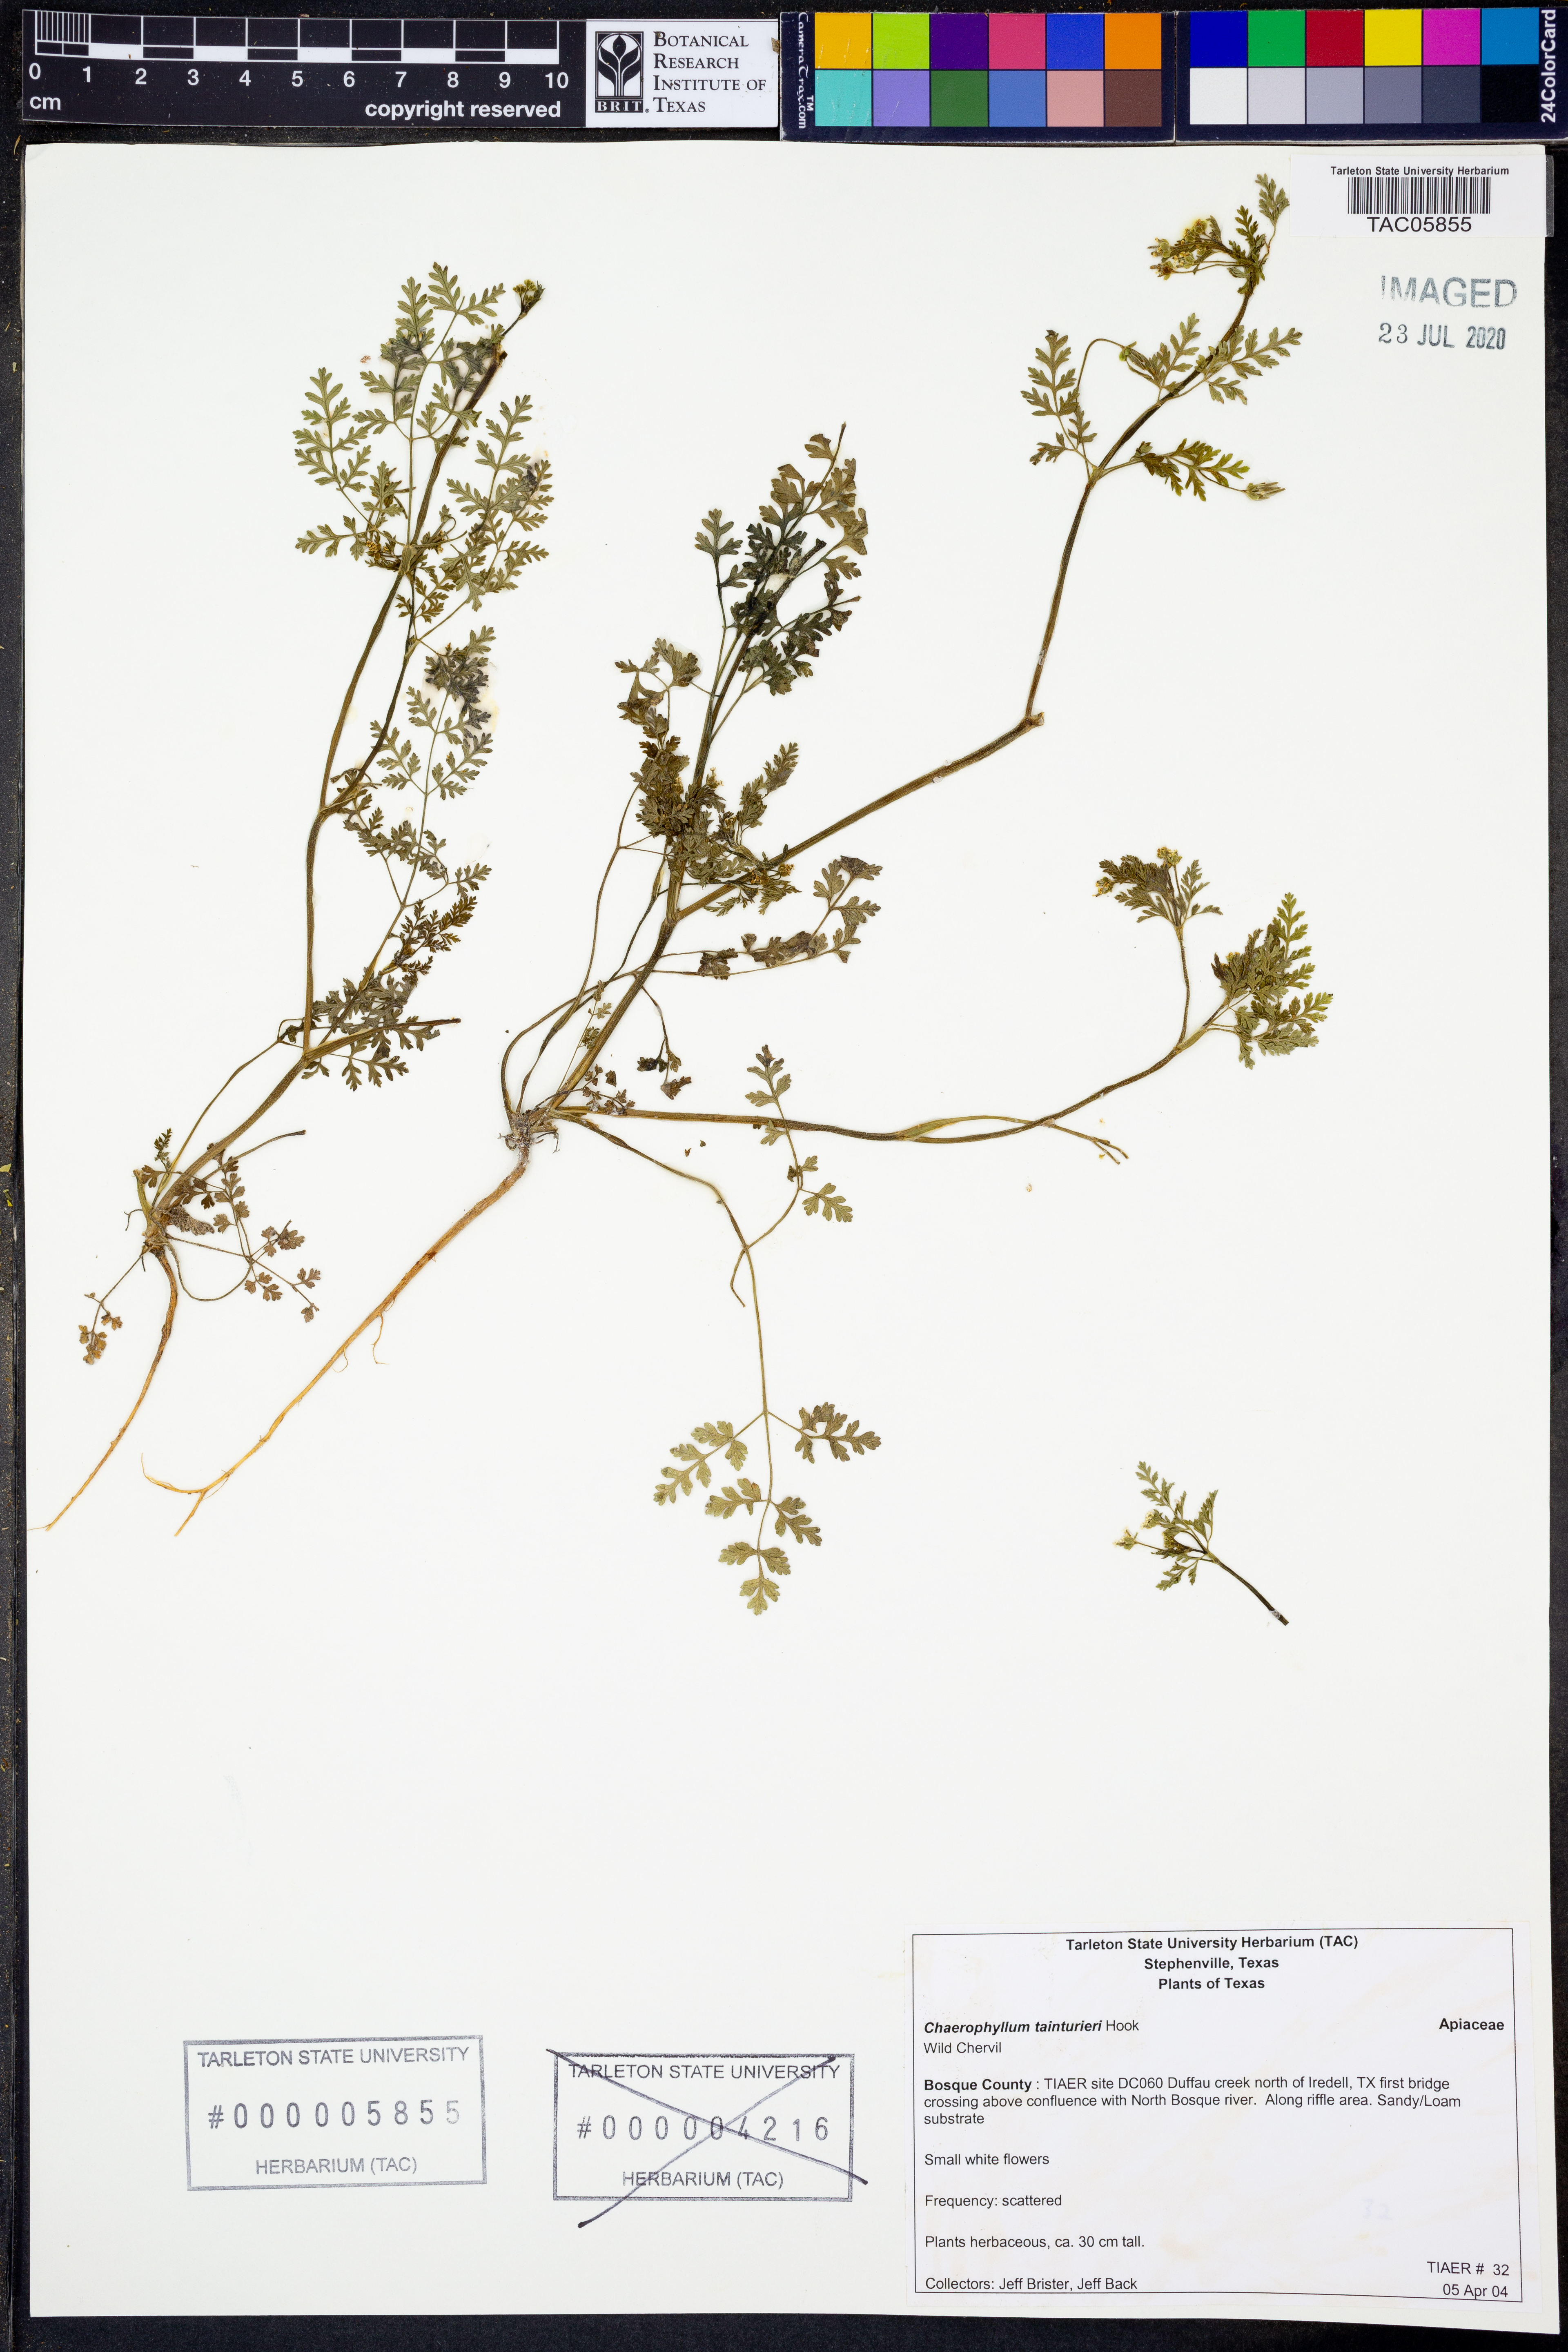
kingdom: Plantae
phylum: Tracheophyta
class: Magnoliopsida
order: Apiales
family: Apiaceae
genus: Chaerophyllum
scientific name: Chaerophyllum tainturieri
